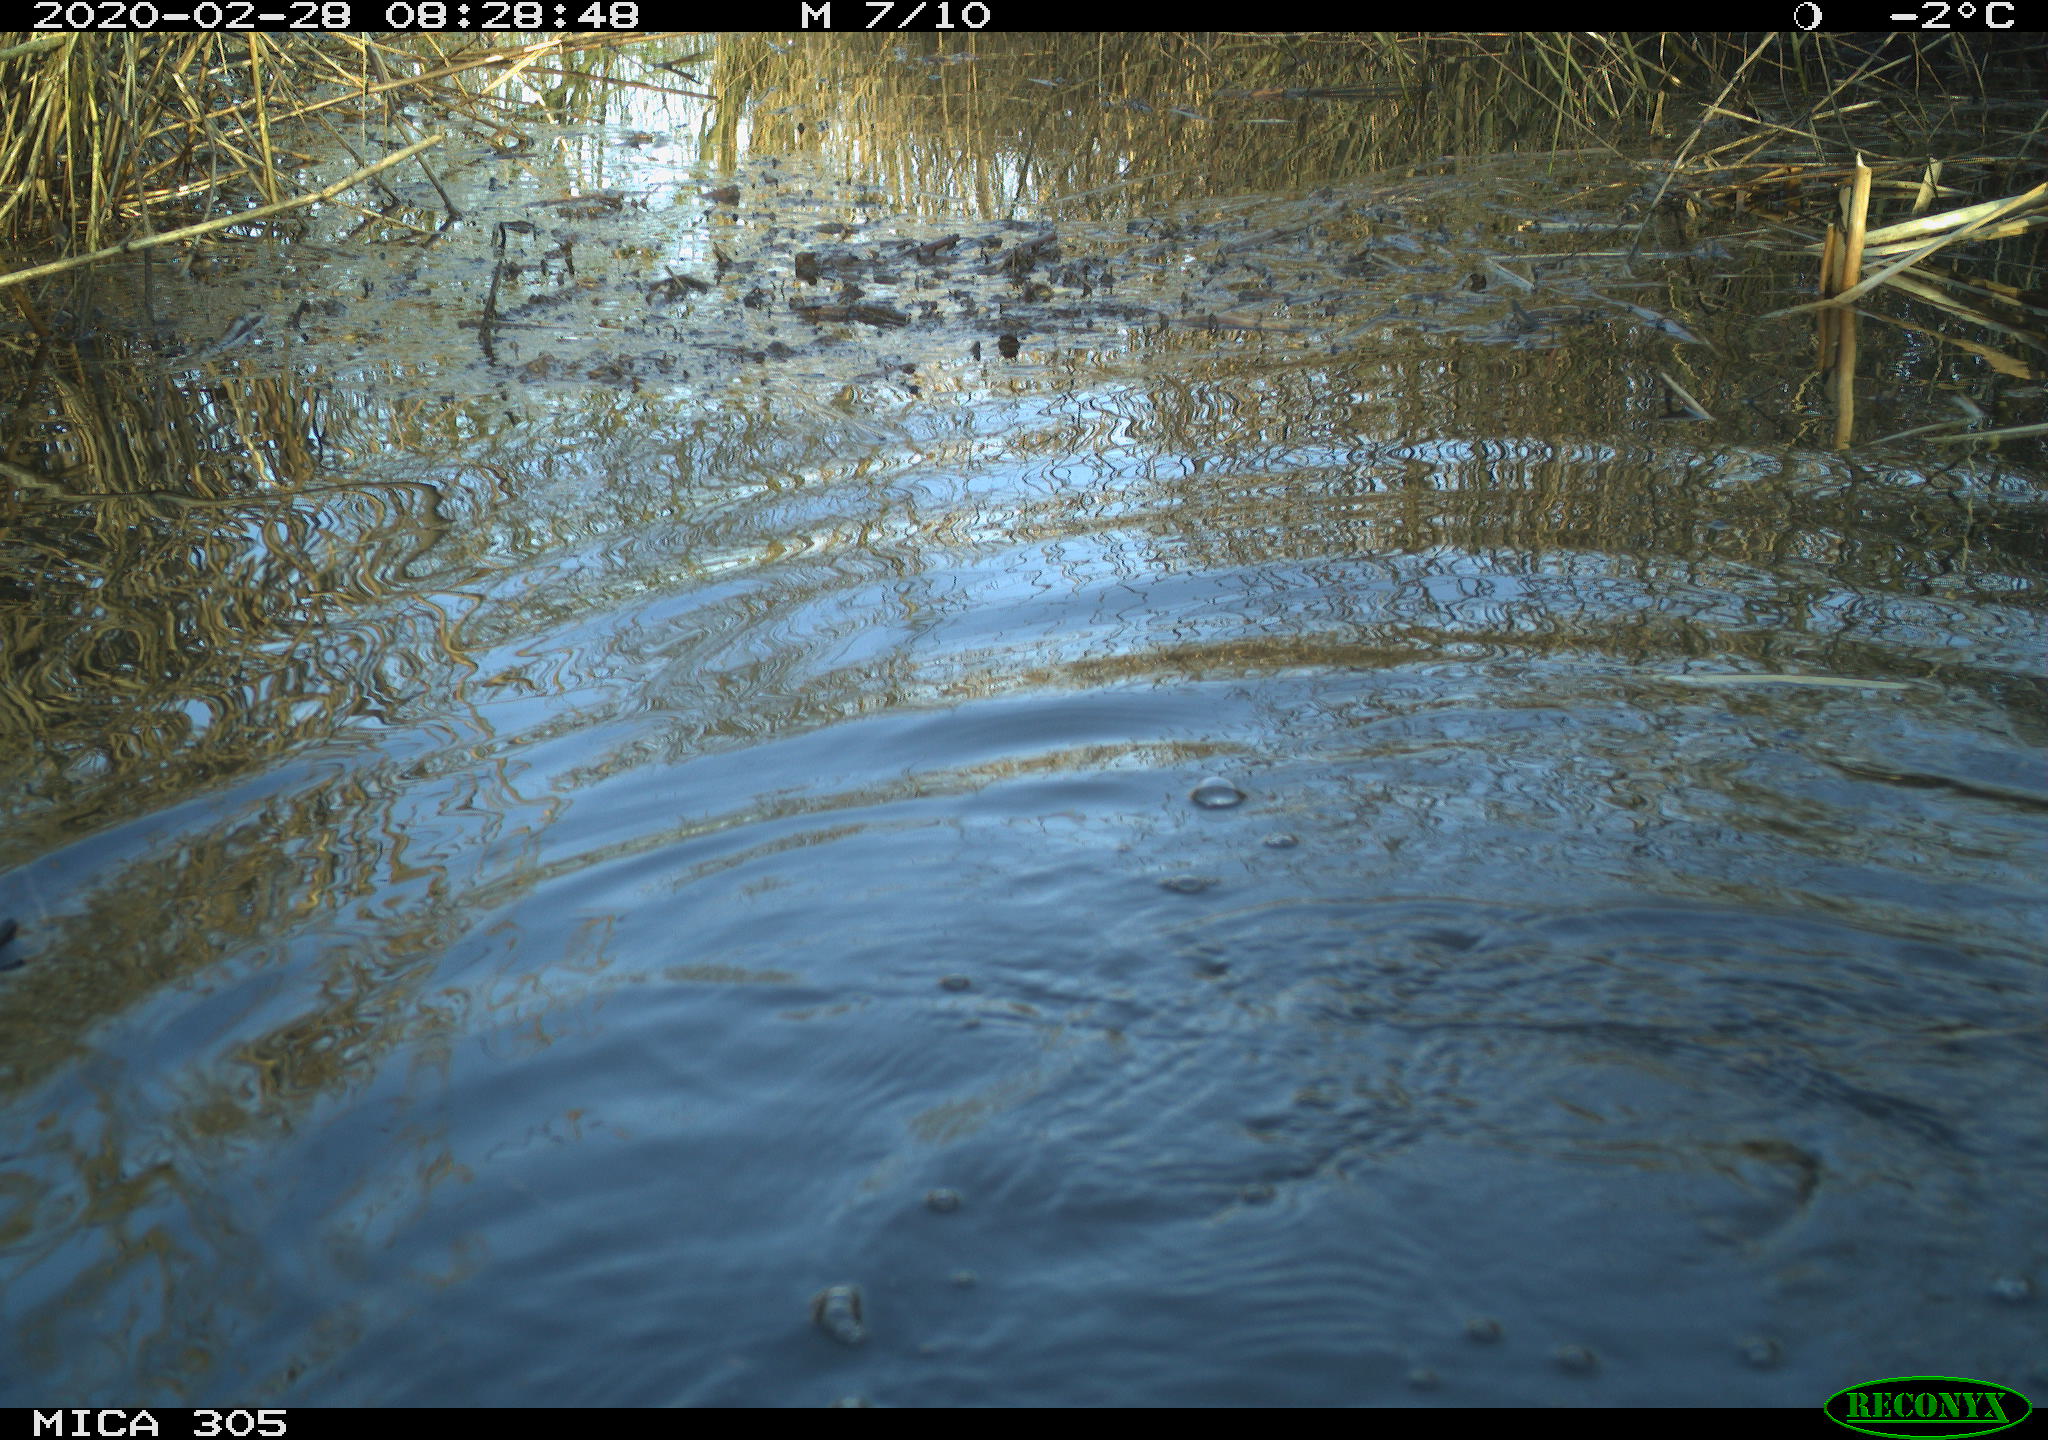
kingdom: Animalia
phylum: Chordata
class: Aves
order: Suliformes
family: Phalacrocoracidae
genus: Phalacrocorax
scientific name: Phalacrocorax carbo
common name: Great cormorant
